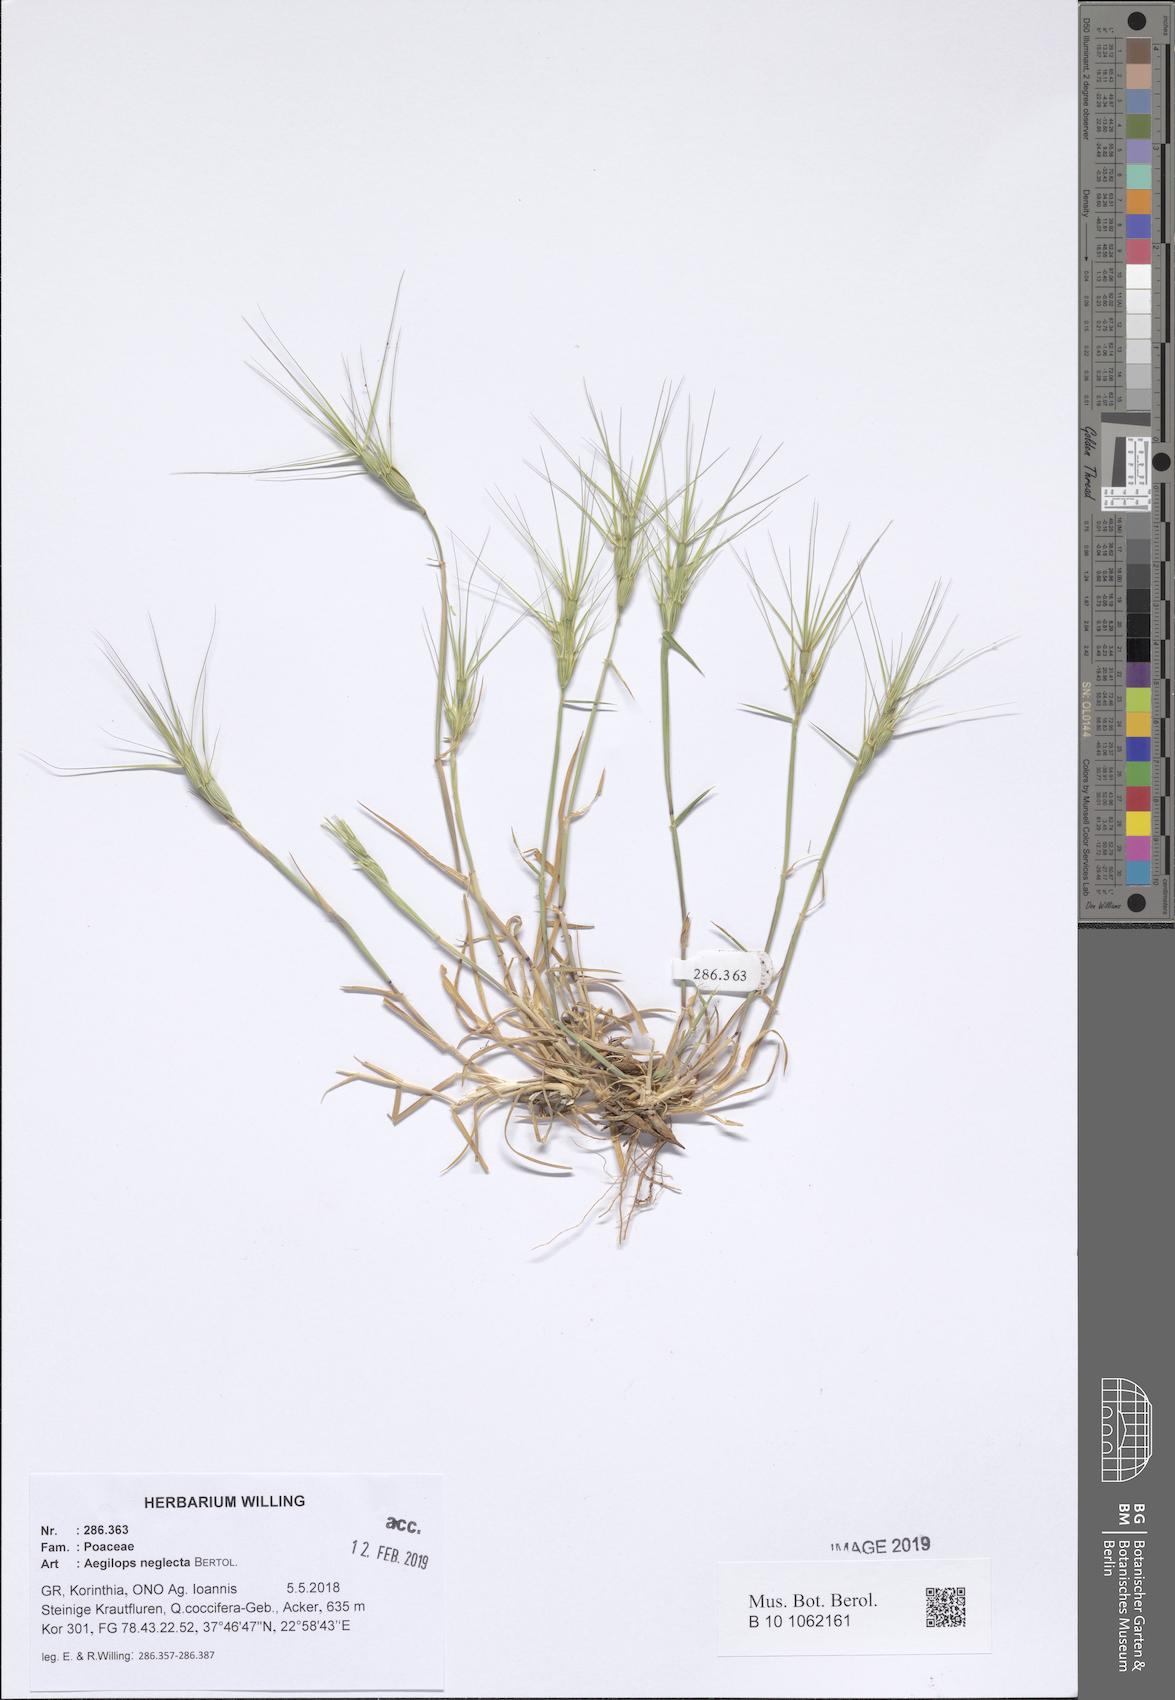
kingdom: Plantae
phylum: Tracheophyta
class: Liliopsida
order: Poales
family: Poaceae
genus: Aegilops
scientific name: Aegilops neglecta
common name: Three-awn goat grass
